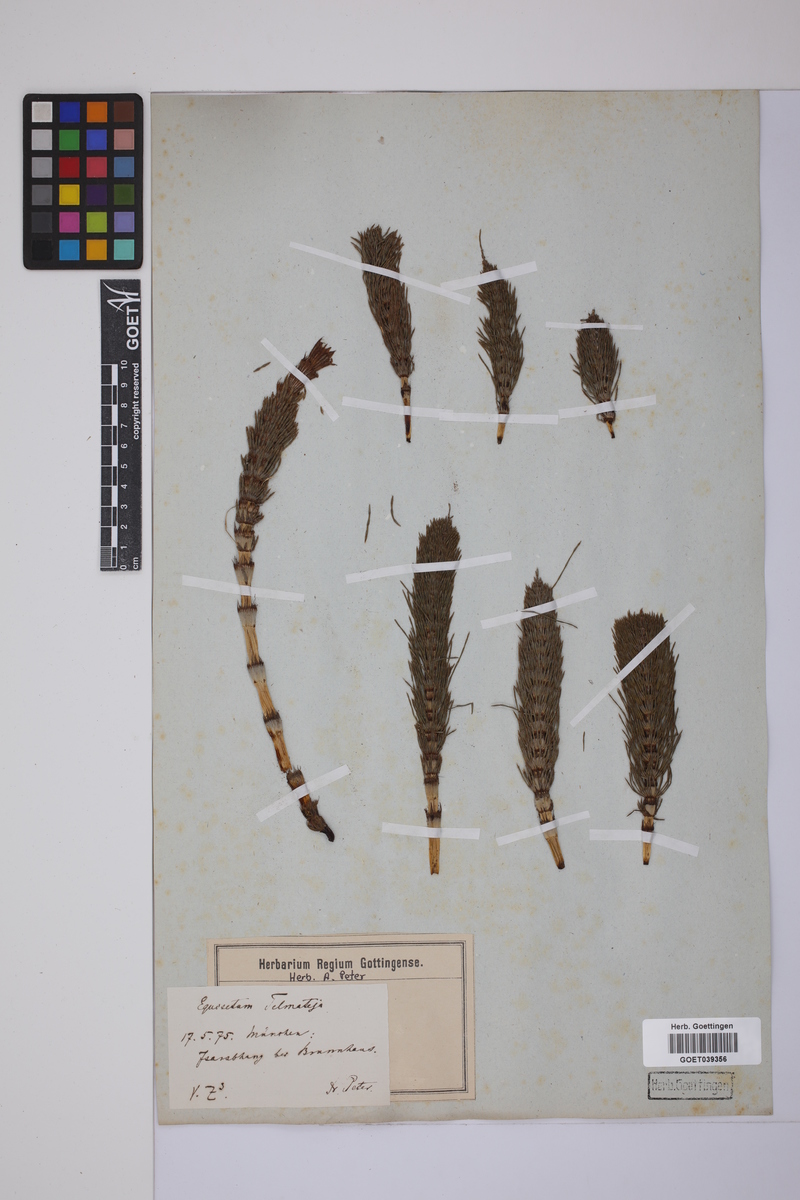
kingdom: Plantae
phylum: Tracheophyta
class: Polypodiopsida
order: Equisetales
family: Equisetaceae
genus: Equisetum
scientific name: Equisetum telmateia
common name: Great horsetail
